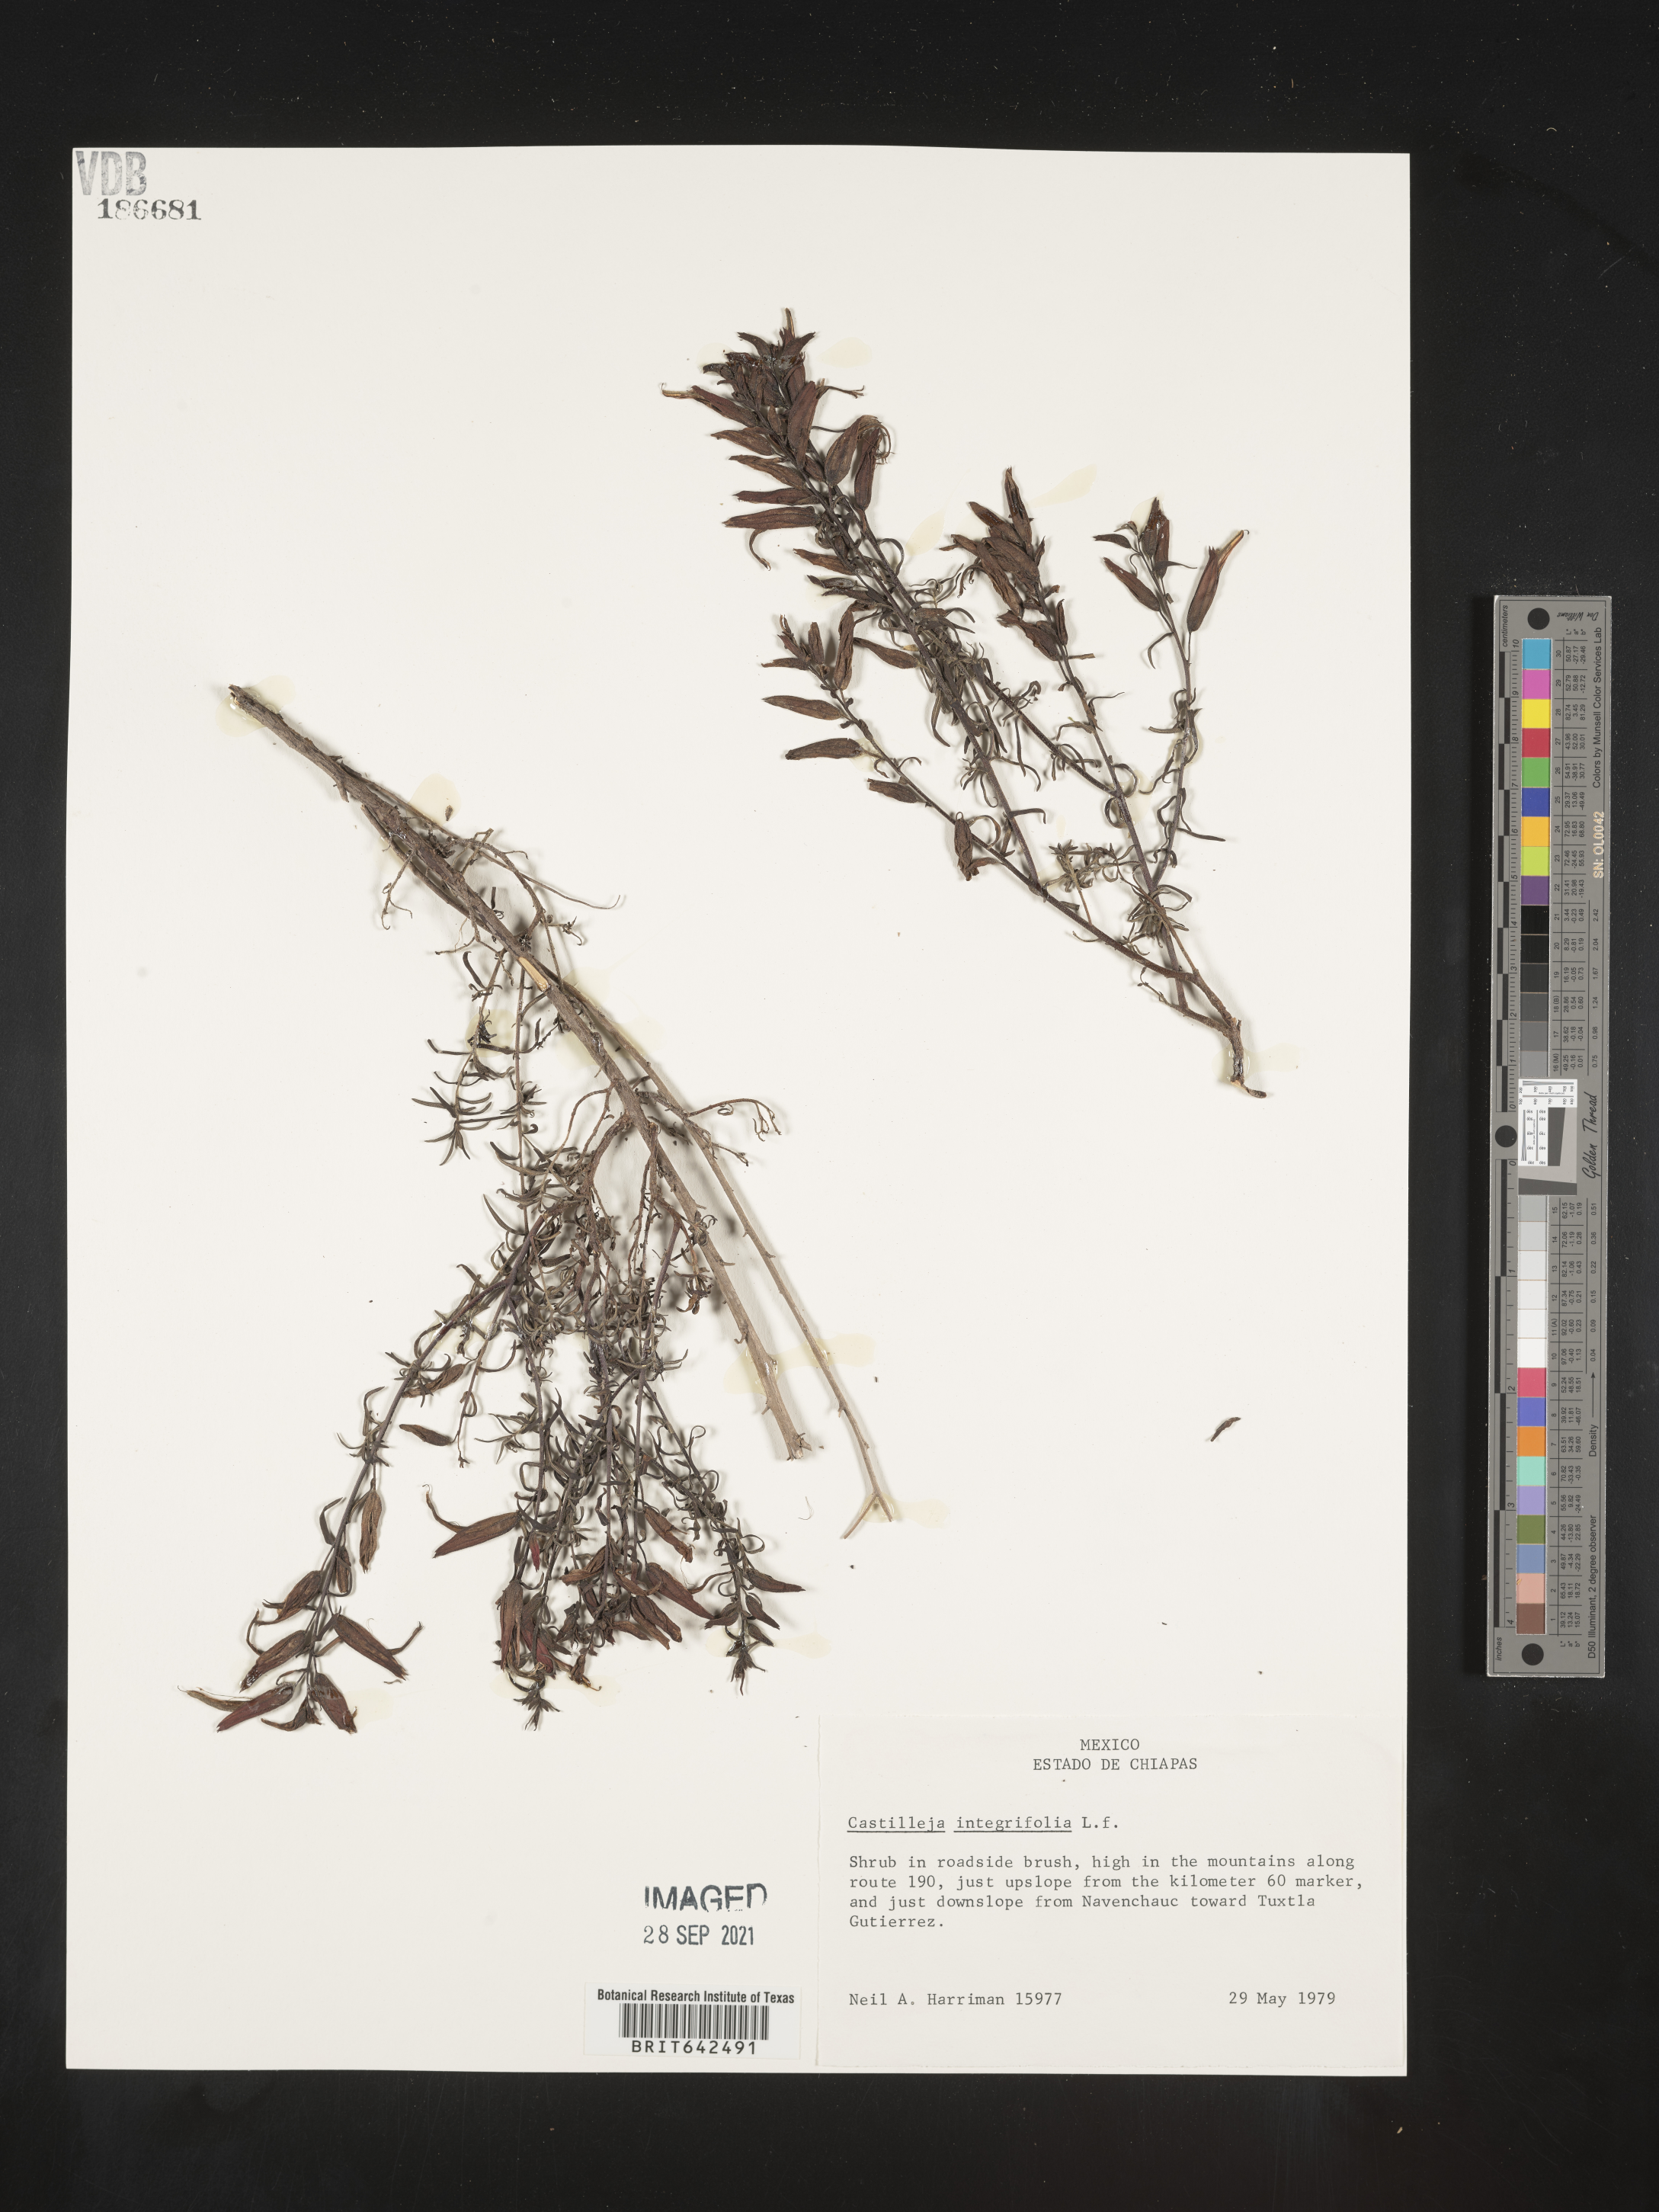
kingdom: Plantae
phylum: Tracheophyta
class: Magnoliopsida
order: Lamiales
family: Orobanchaceae
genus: Castilleja
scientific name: Castilleja
